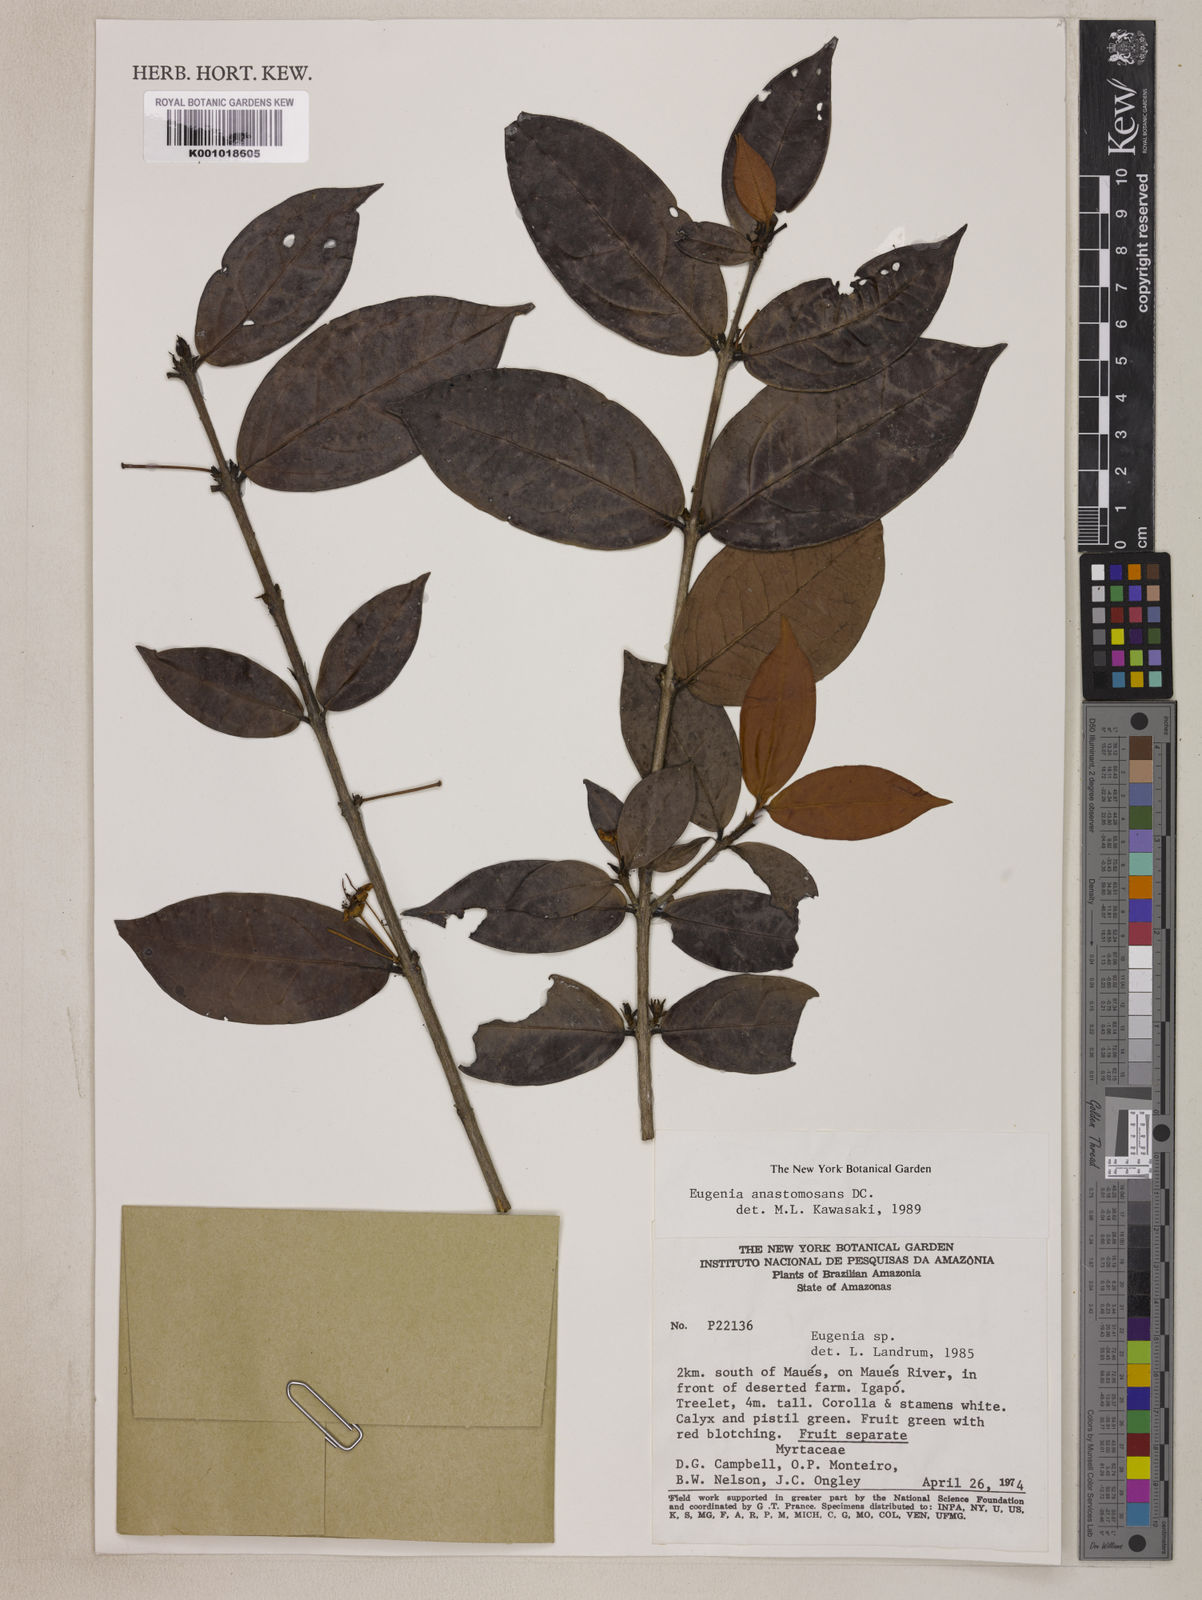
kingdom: Plantae
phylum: Tracheophyta
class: Magnoliopsida
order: Myrtales
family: Myrtaceae
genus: Eugenia
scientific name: Eugenia anastomosans
